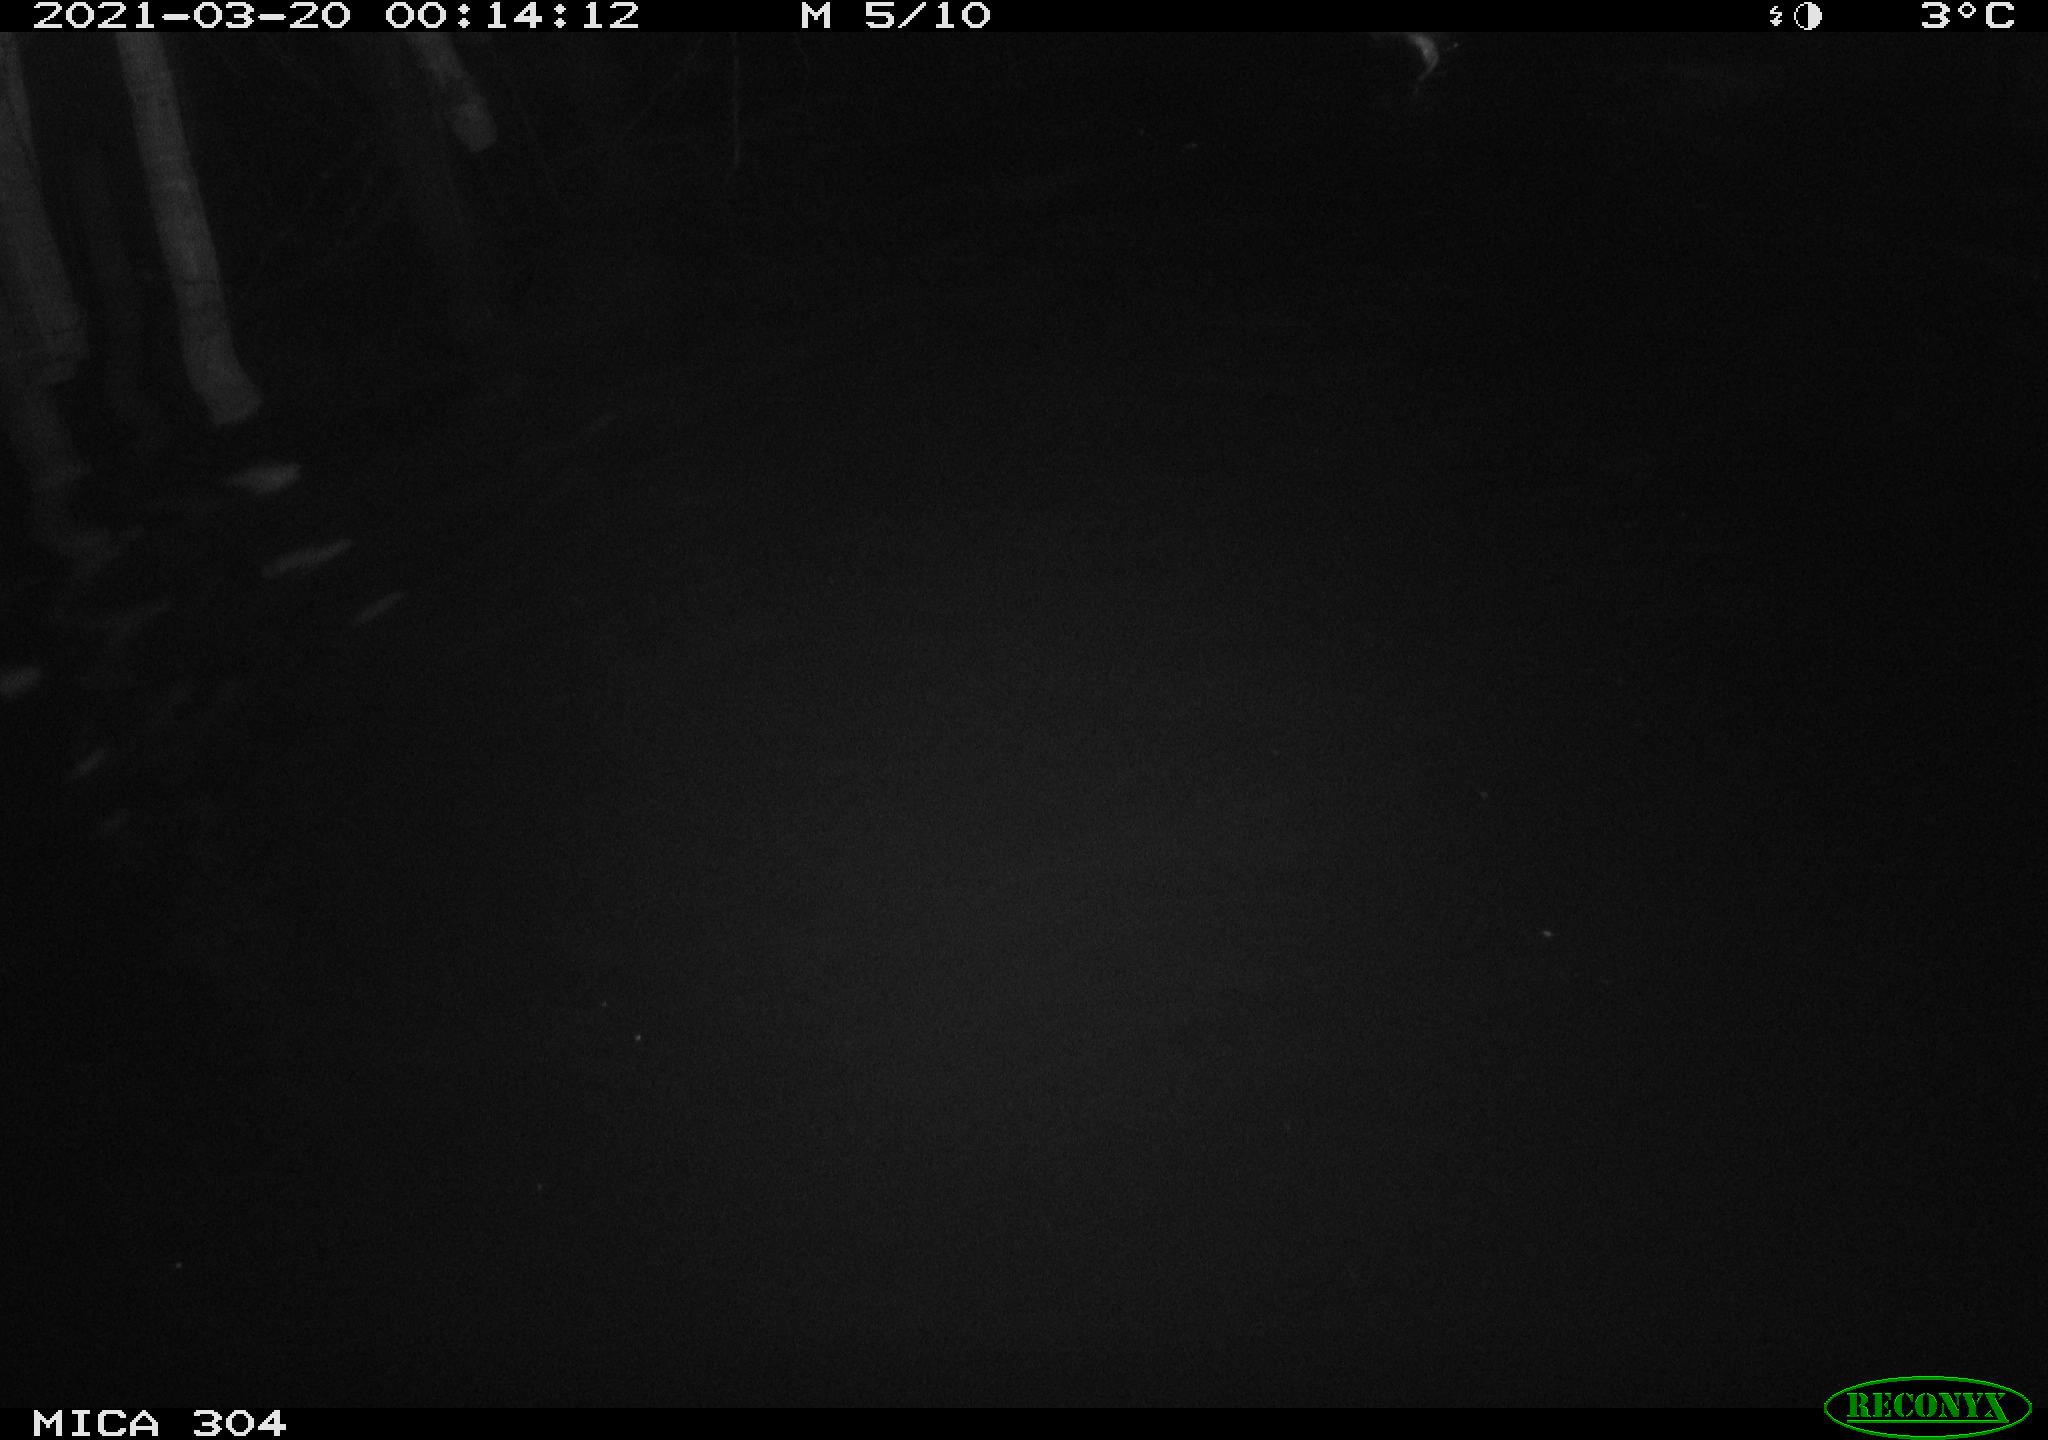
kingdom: Animalia
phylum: Chordata
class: Mammalia
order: Rodentia
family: Cricetidae
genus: Ondatra
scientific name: Ondatra zibethicus
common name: Muskrat
